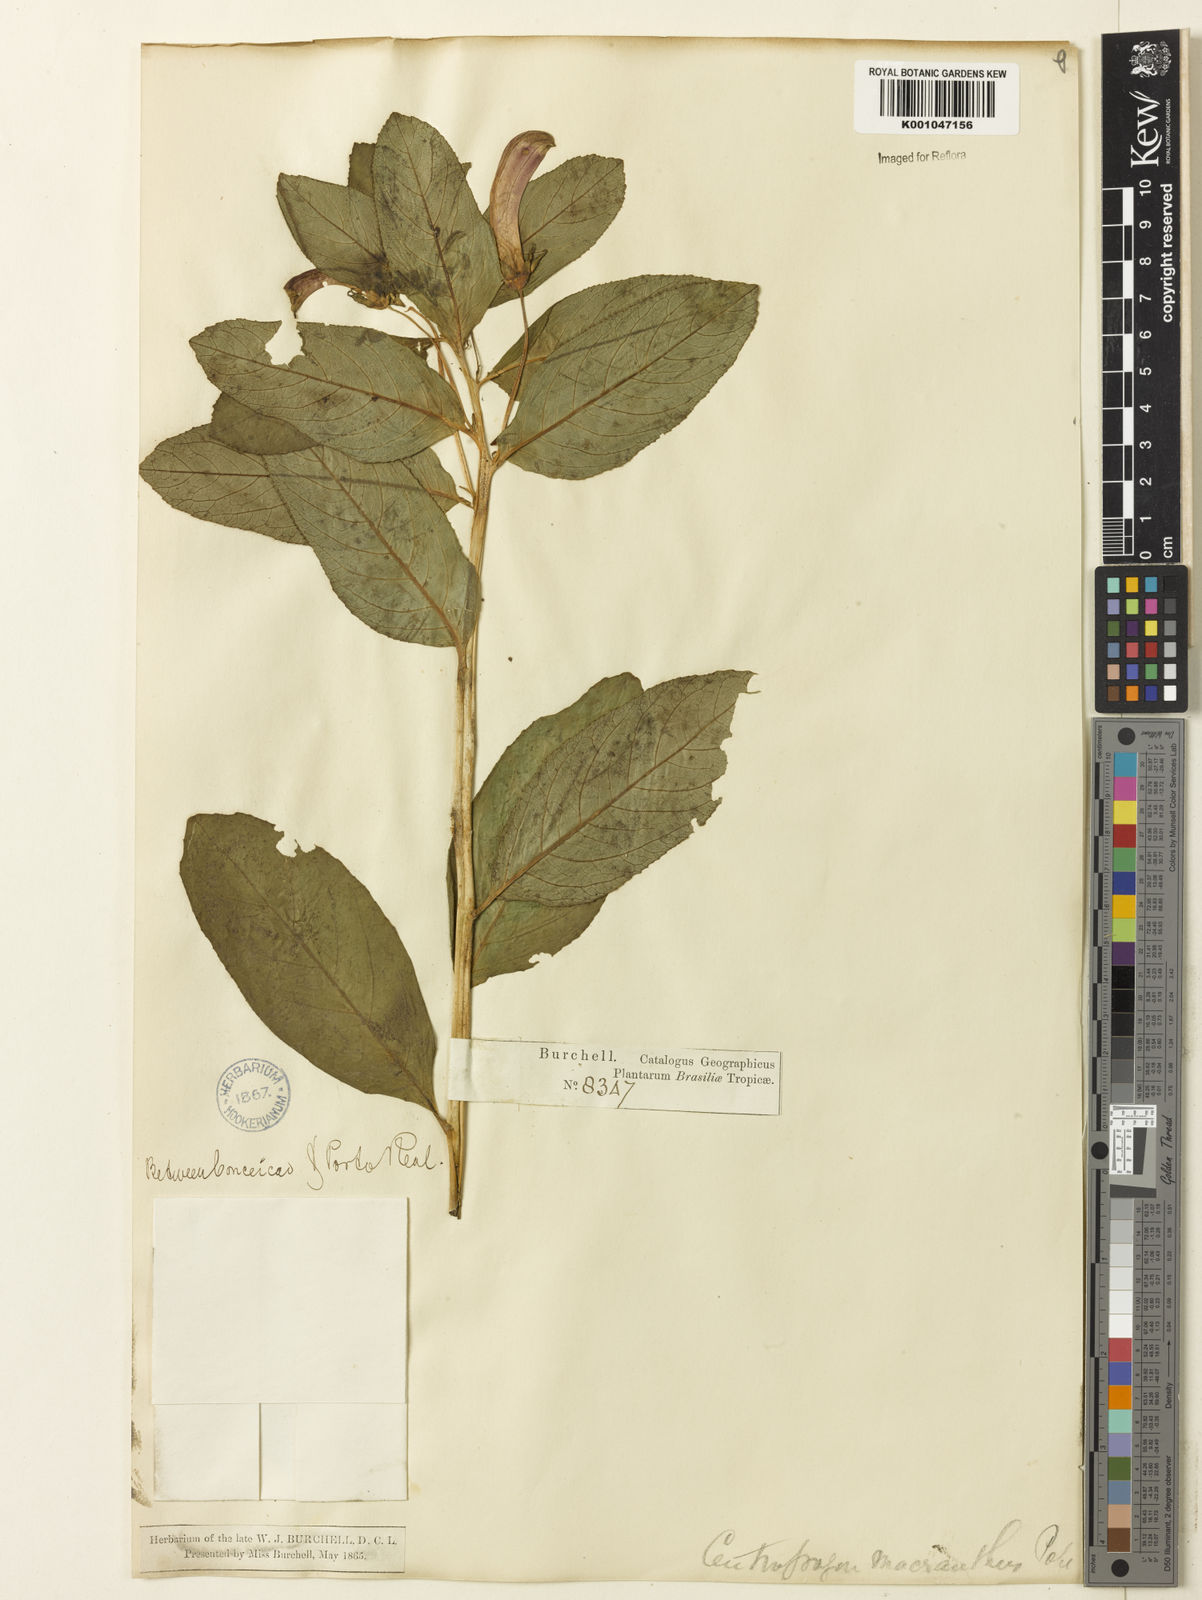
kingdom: Plantae
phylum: Tracheophyta
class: Magnoliopsida
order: Asterales
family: Campanulaceae
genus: Centropogon
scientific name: Centropogon cornutus
